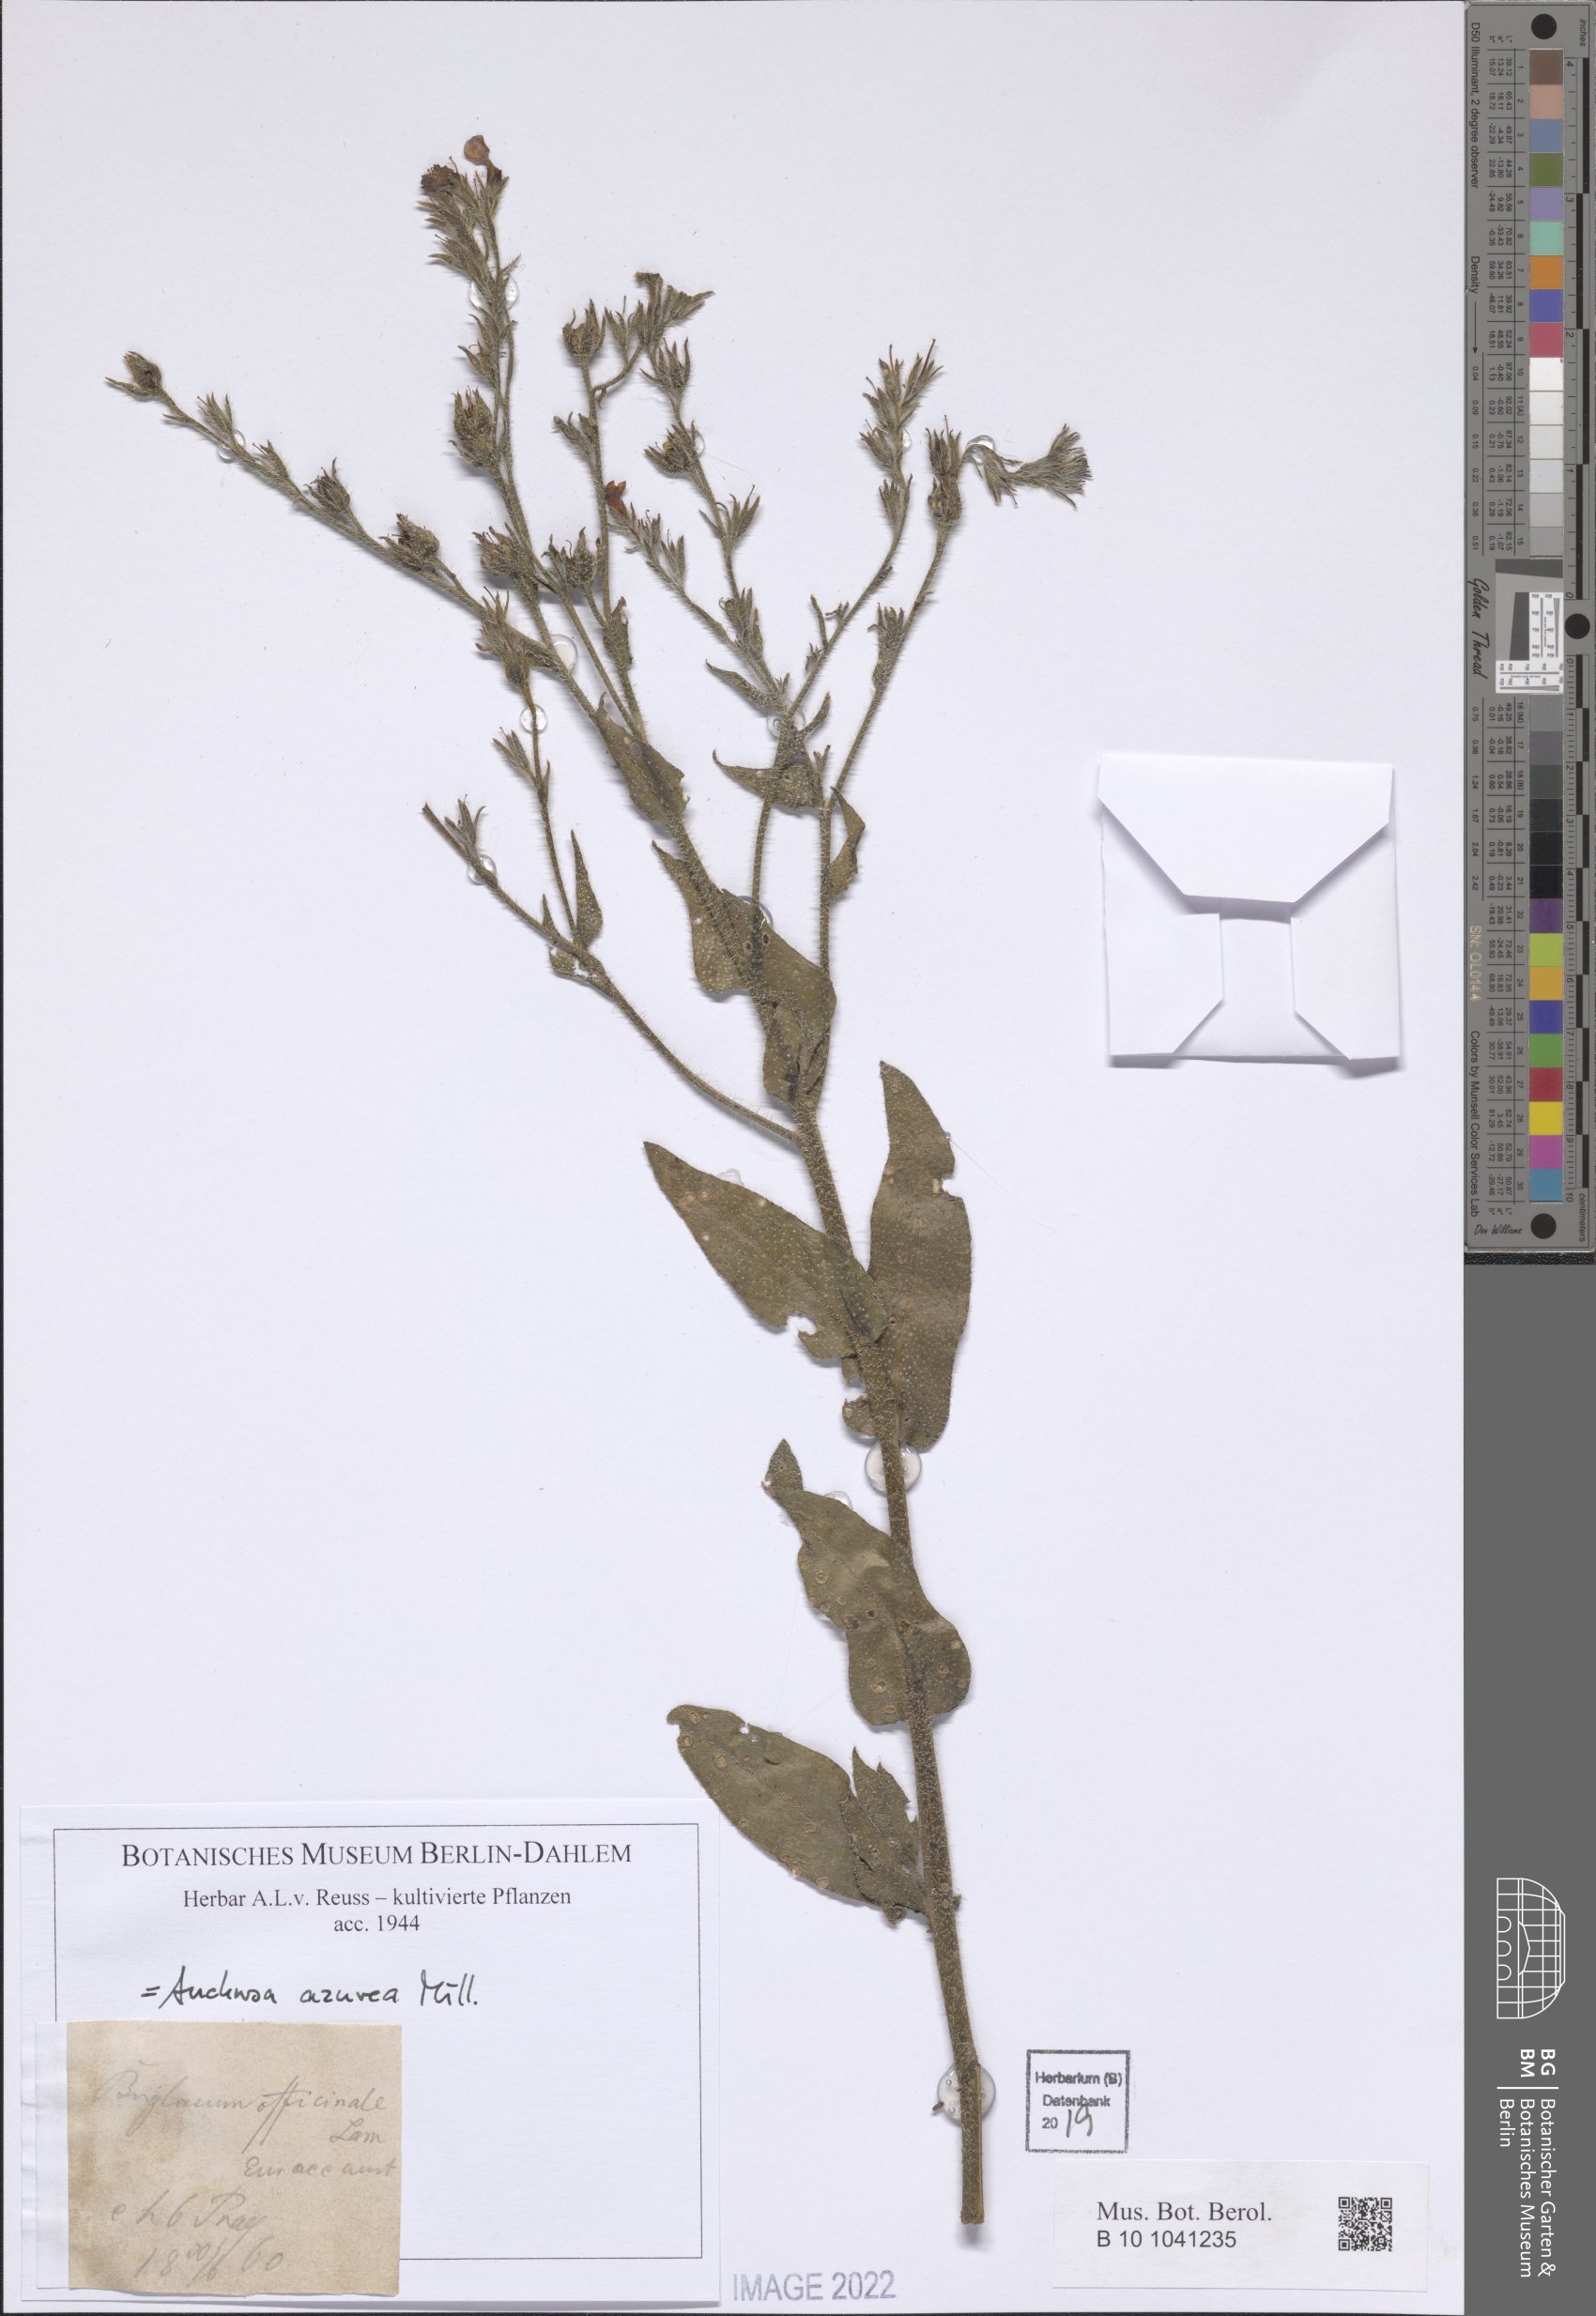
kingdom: Plantae
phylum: Tracheophyta
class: Magnoliopsida
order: Boraginales
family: Boraginaceae
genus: Anchusa
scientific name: Anchusa azurea
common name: Garden anchusa
